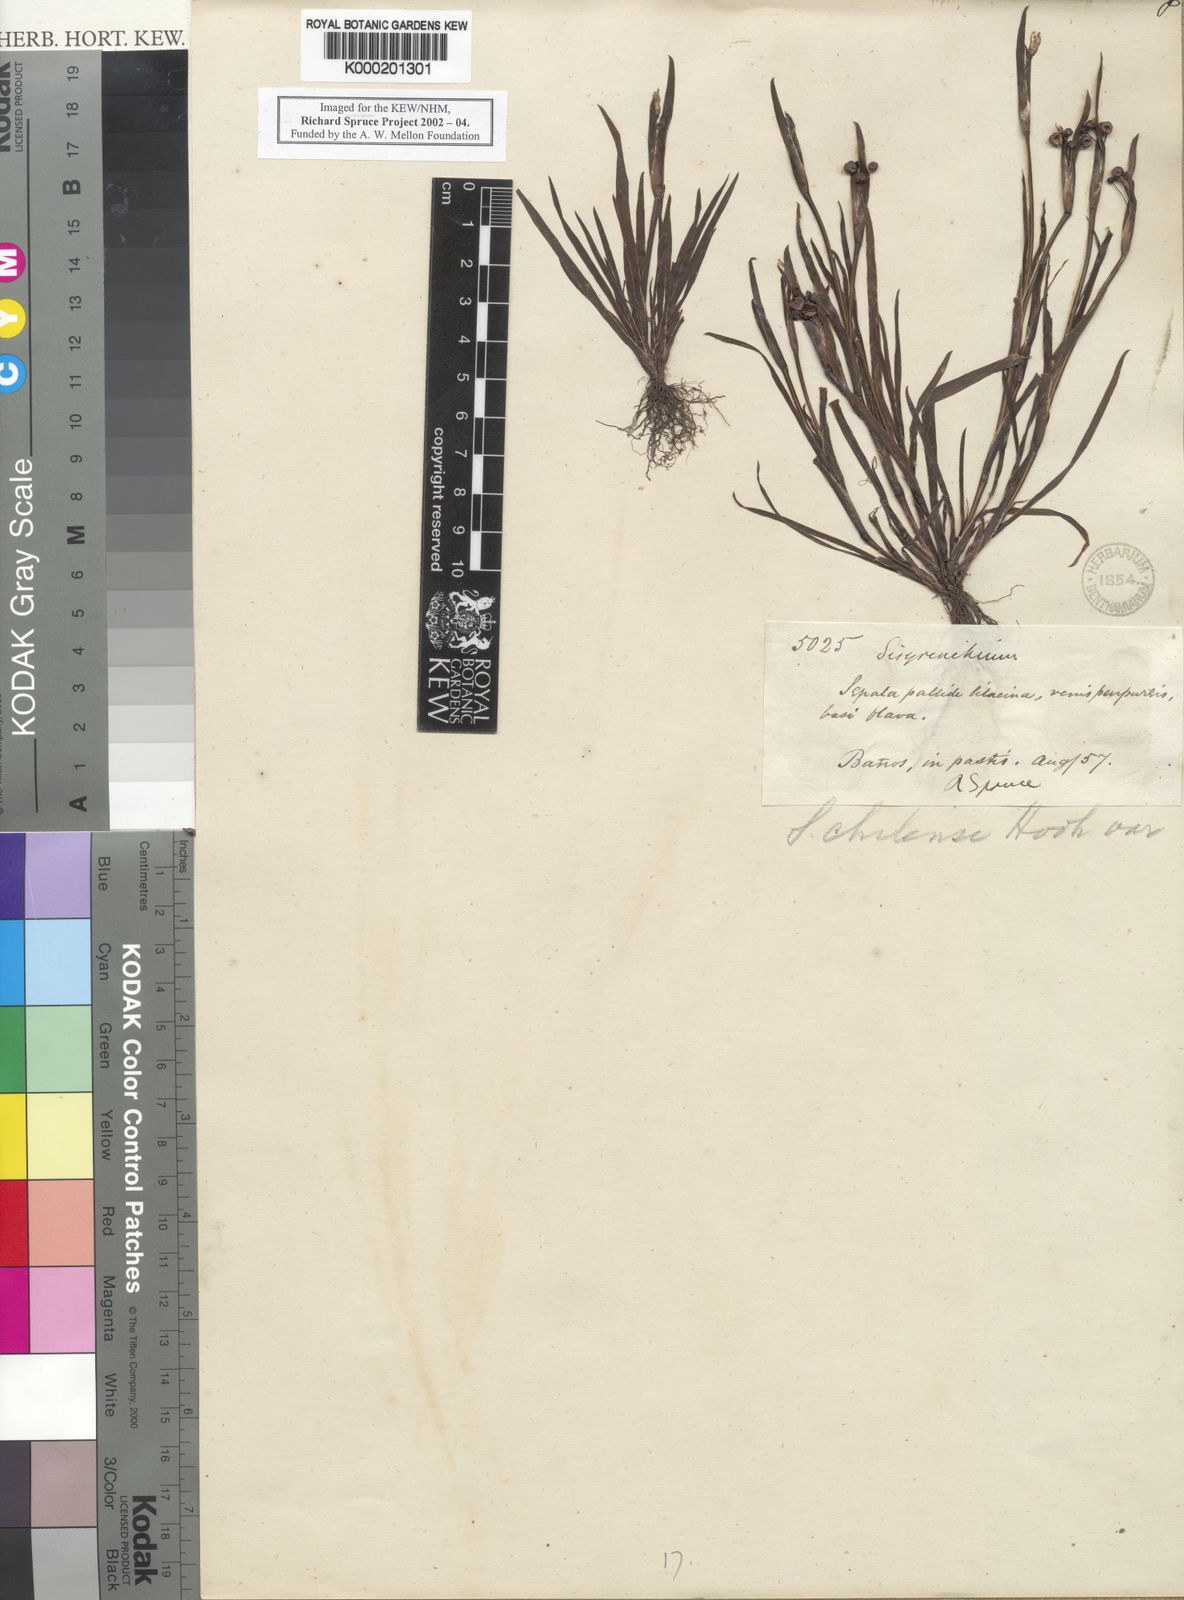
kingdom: Plantae
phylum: Tracheophyta
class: Liliopsida
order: Asparagales
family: Iridaceae
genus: Sisyrinchium
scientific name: Sisyrinchium micranthum
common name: Bermuda pigroot
